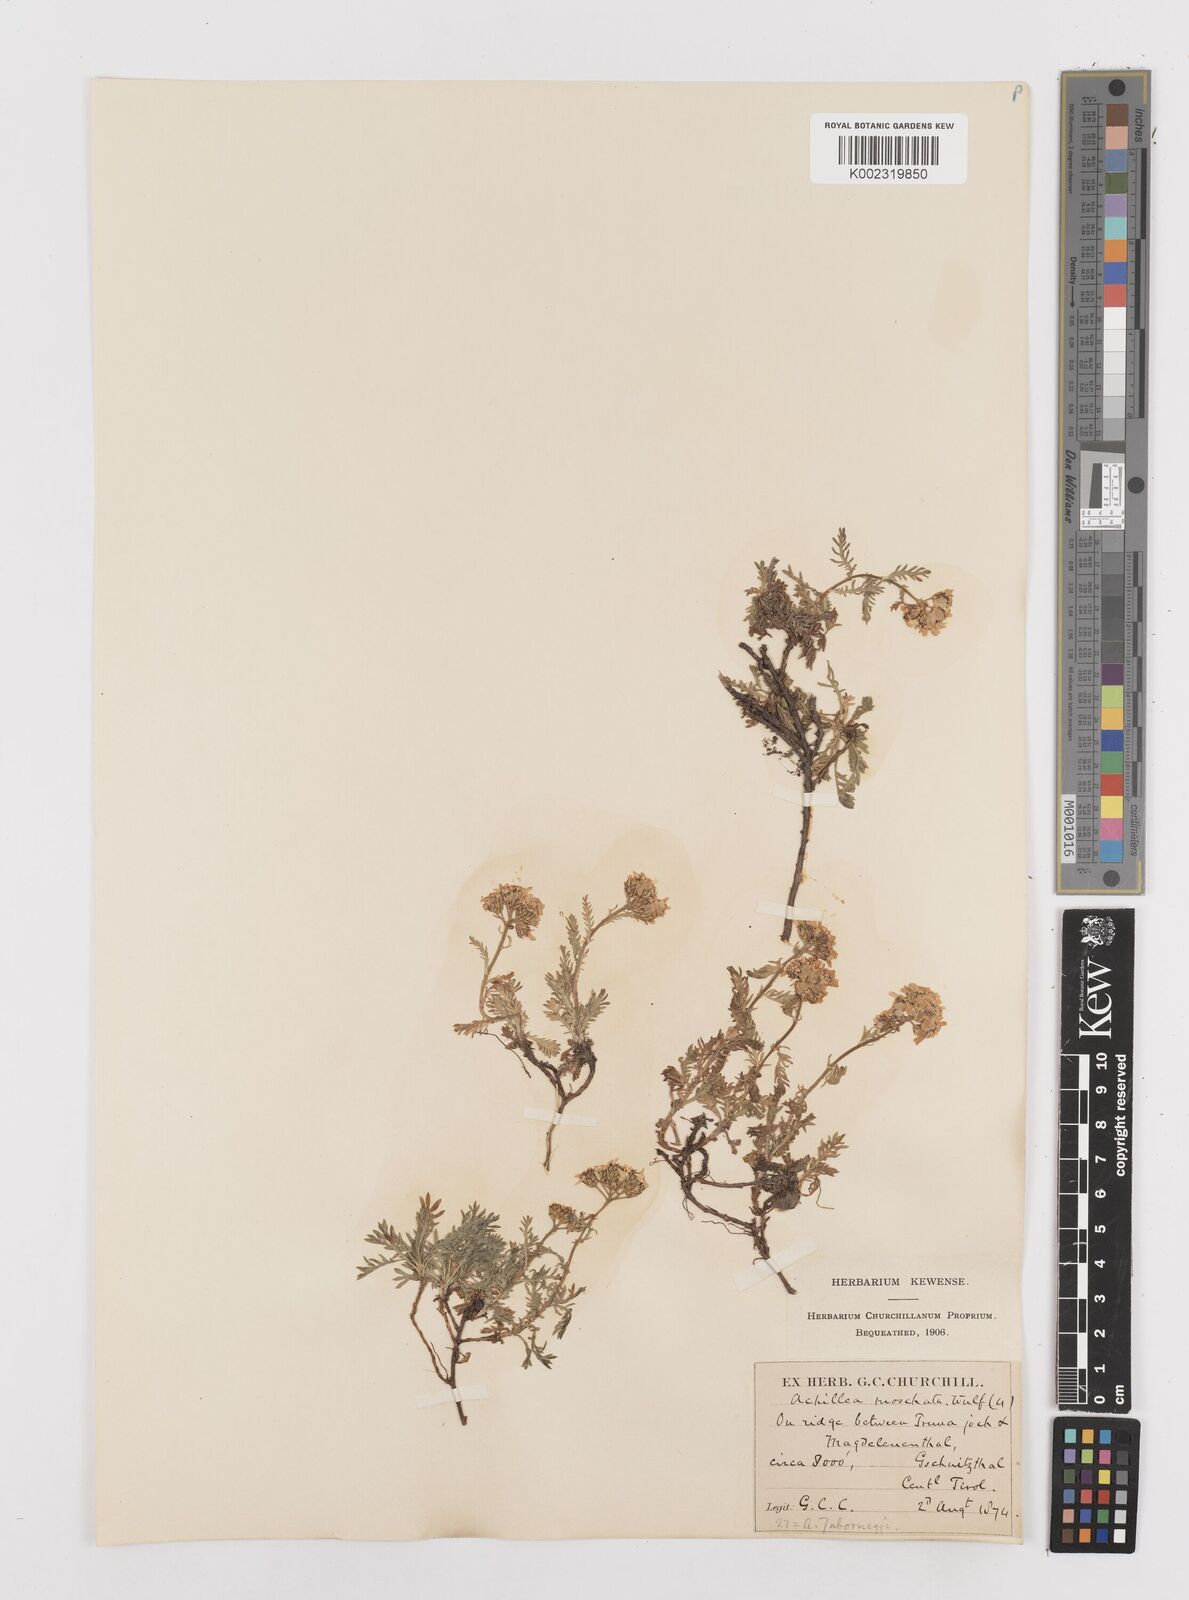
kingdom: Plantae
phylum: Tracheophyta
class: Magnoliopsida
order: Asterales
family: Asteraceae
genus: Achillea
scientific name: Achillea erba-rotta
